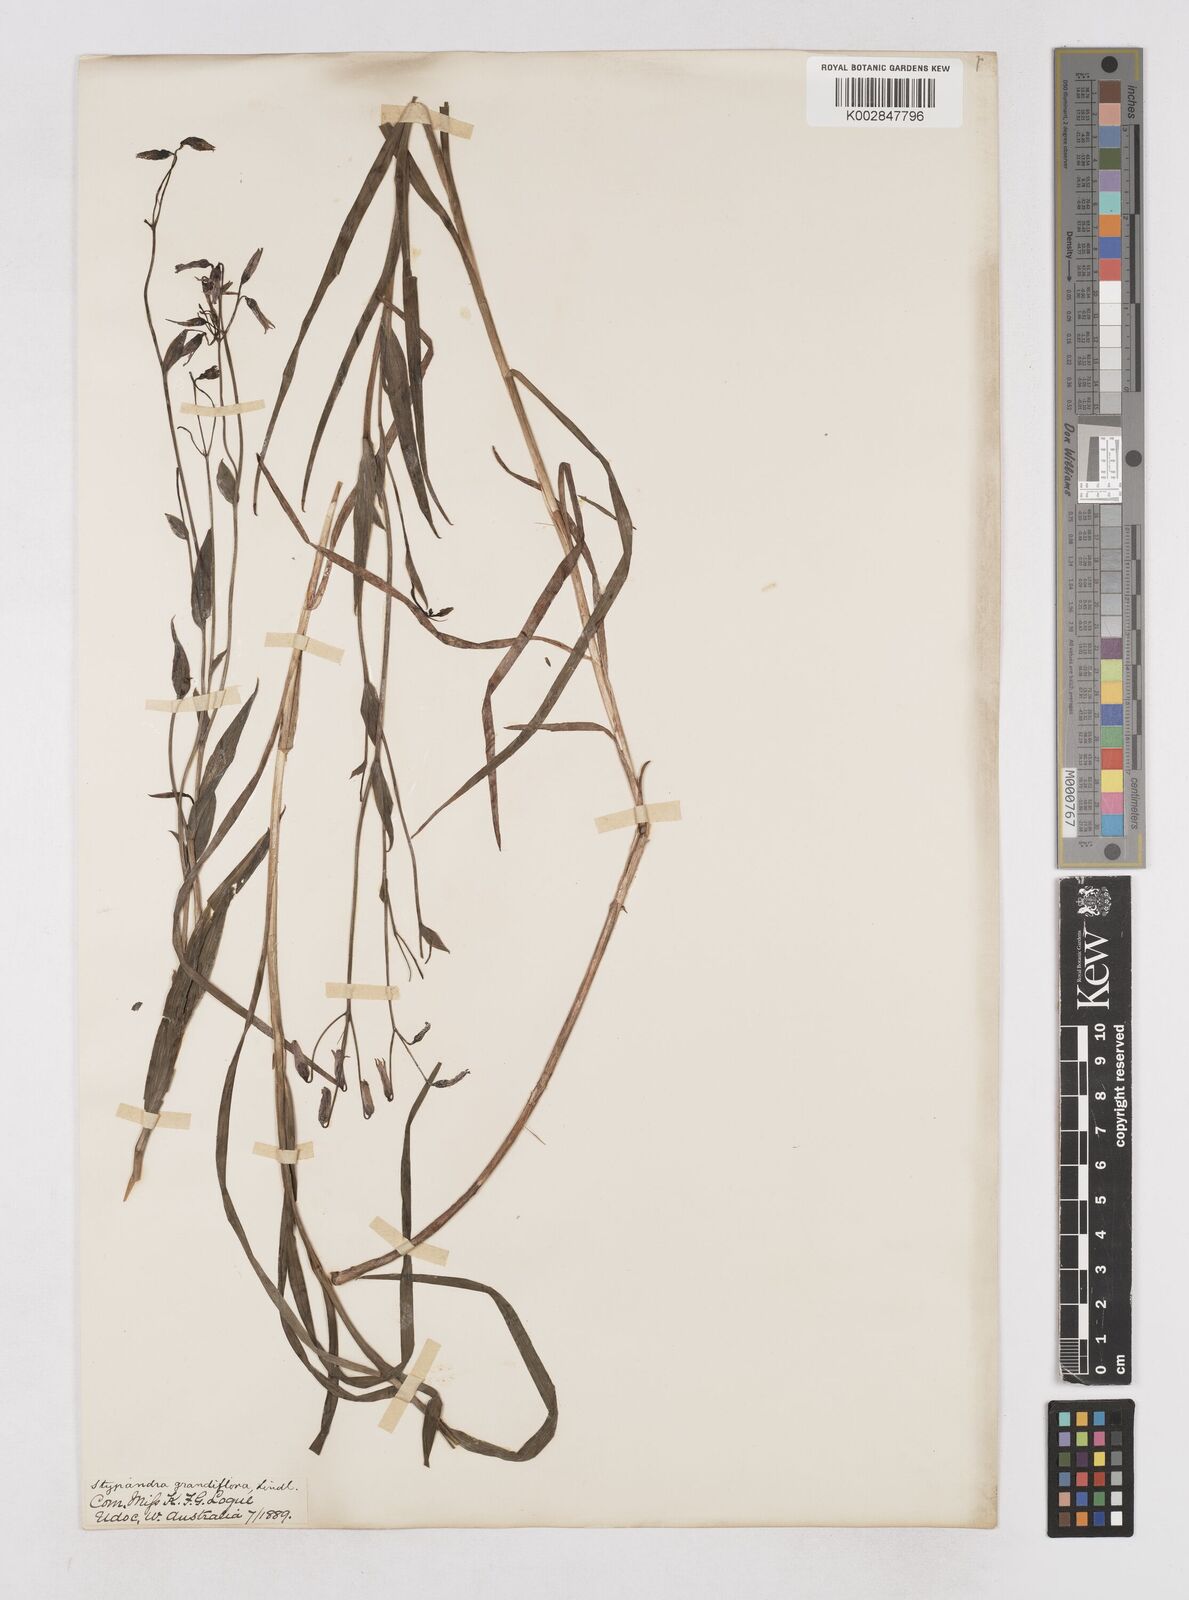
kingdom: Plantae
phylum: Tracheophyta
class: Liliopsida
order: Asparagales
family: Asphodelaceae
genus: Stypandra
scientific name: Stypandra glauca
